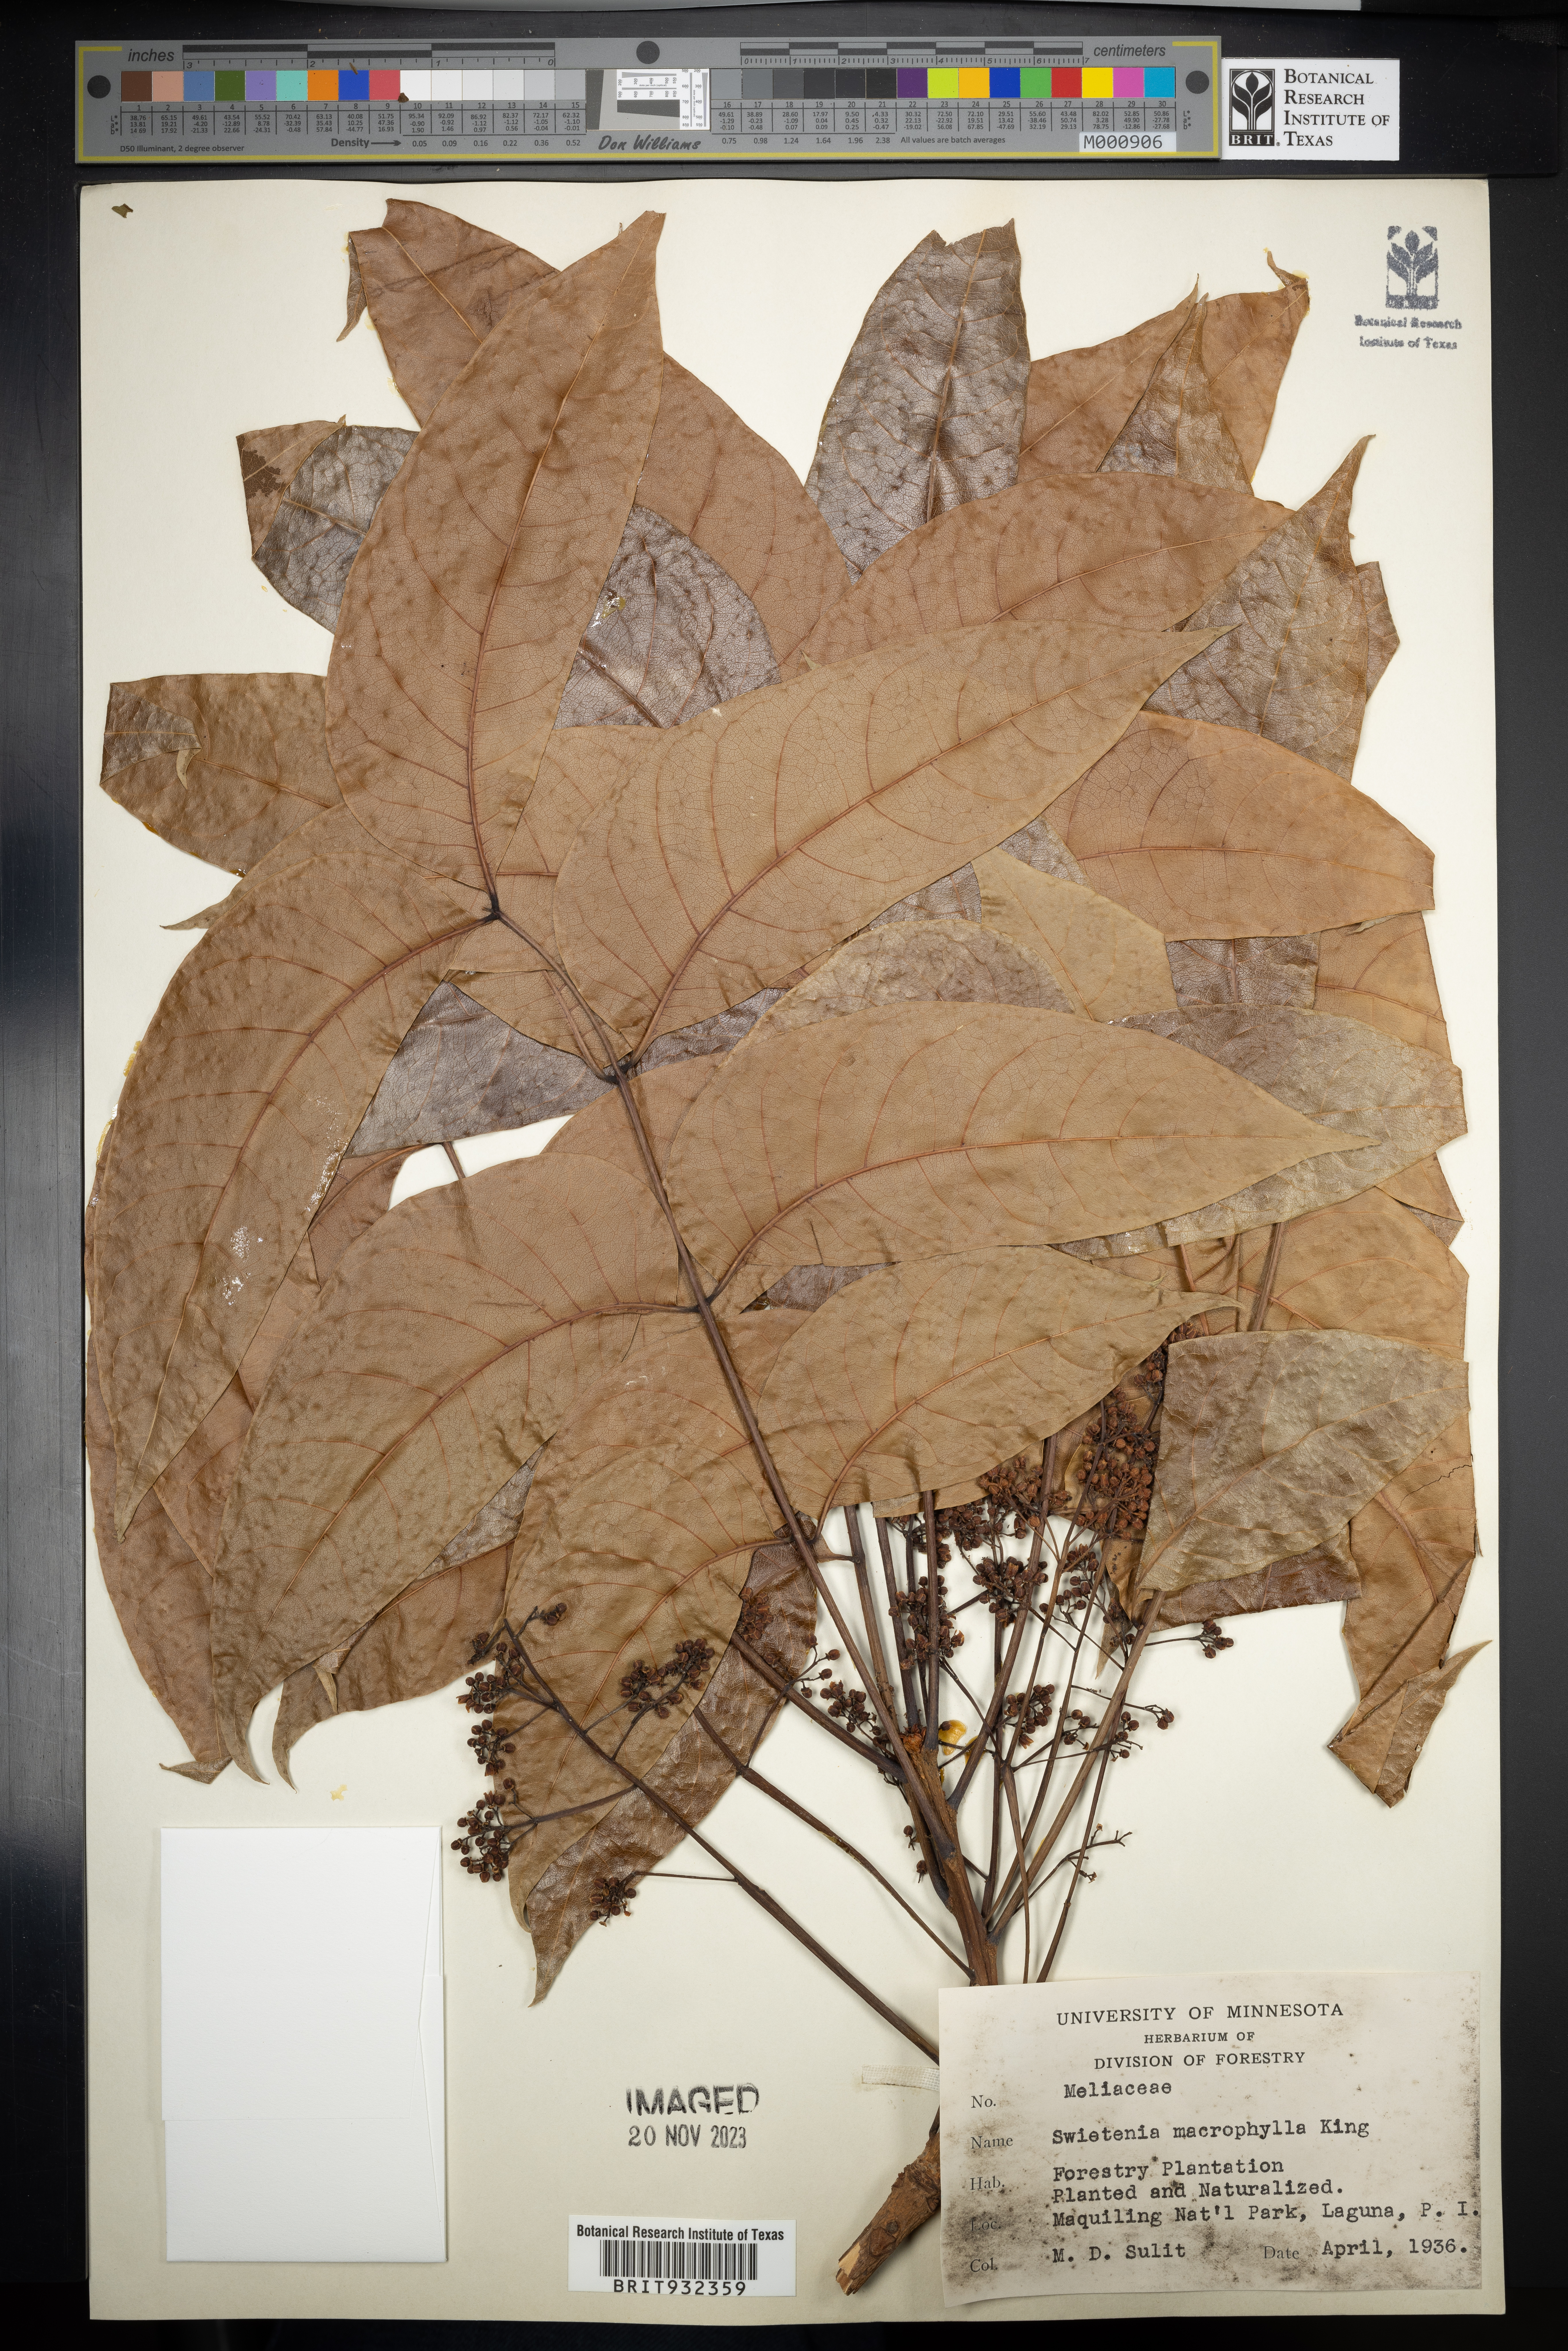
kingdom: Plantae
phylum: Tracheophyta
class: Magnoliopsida
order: Sapindales
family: Meliaceae
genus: Swietenia
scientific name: Swietenia
